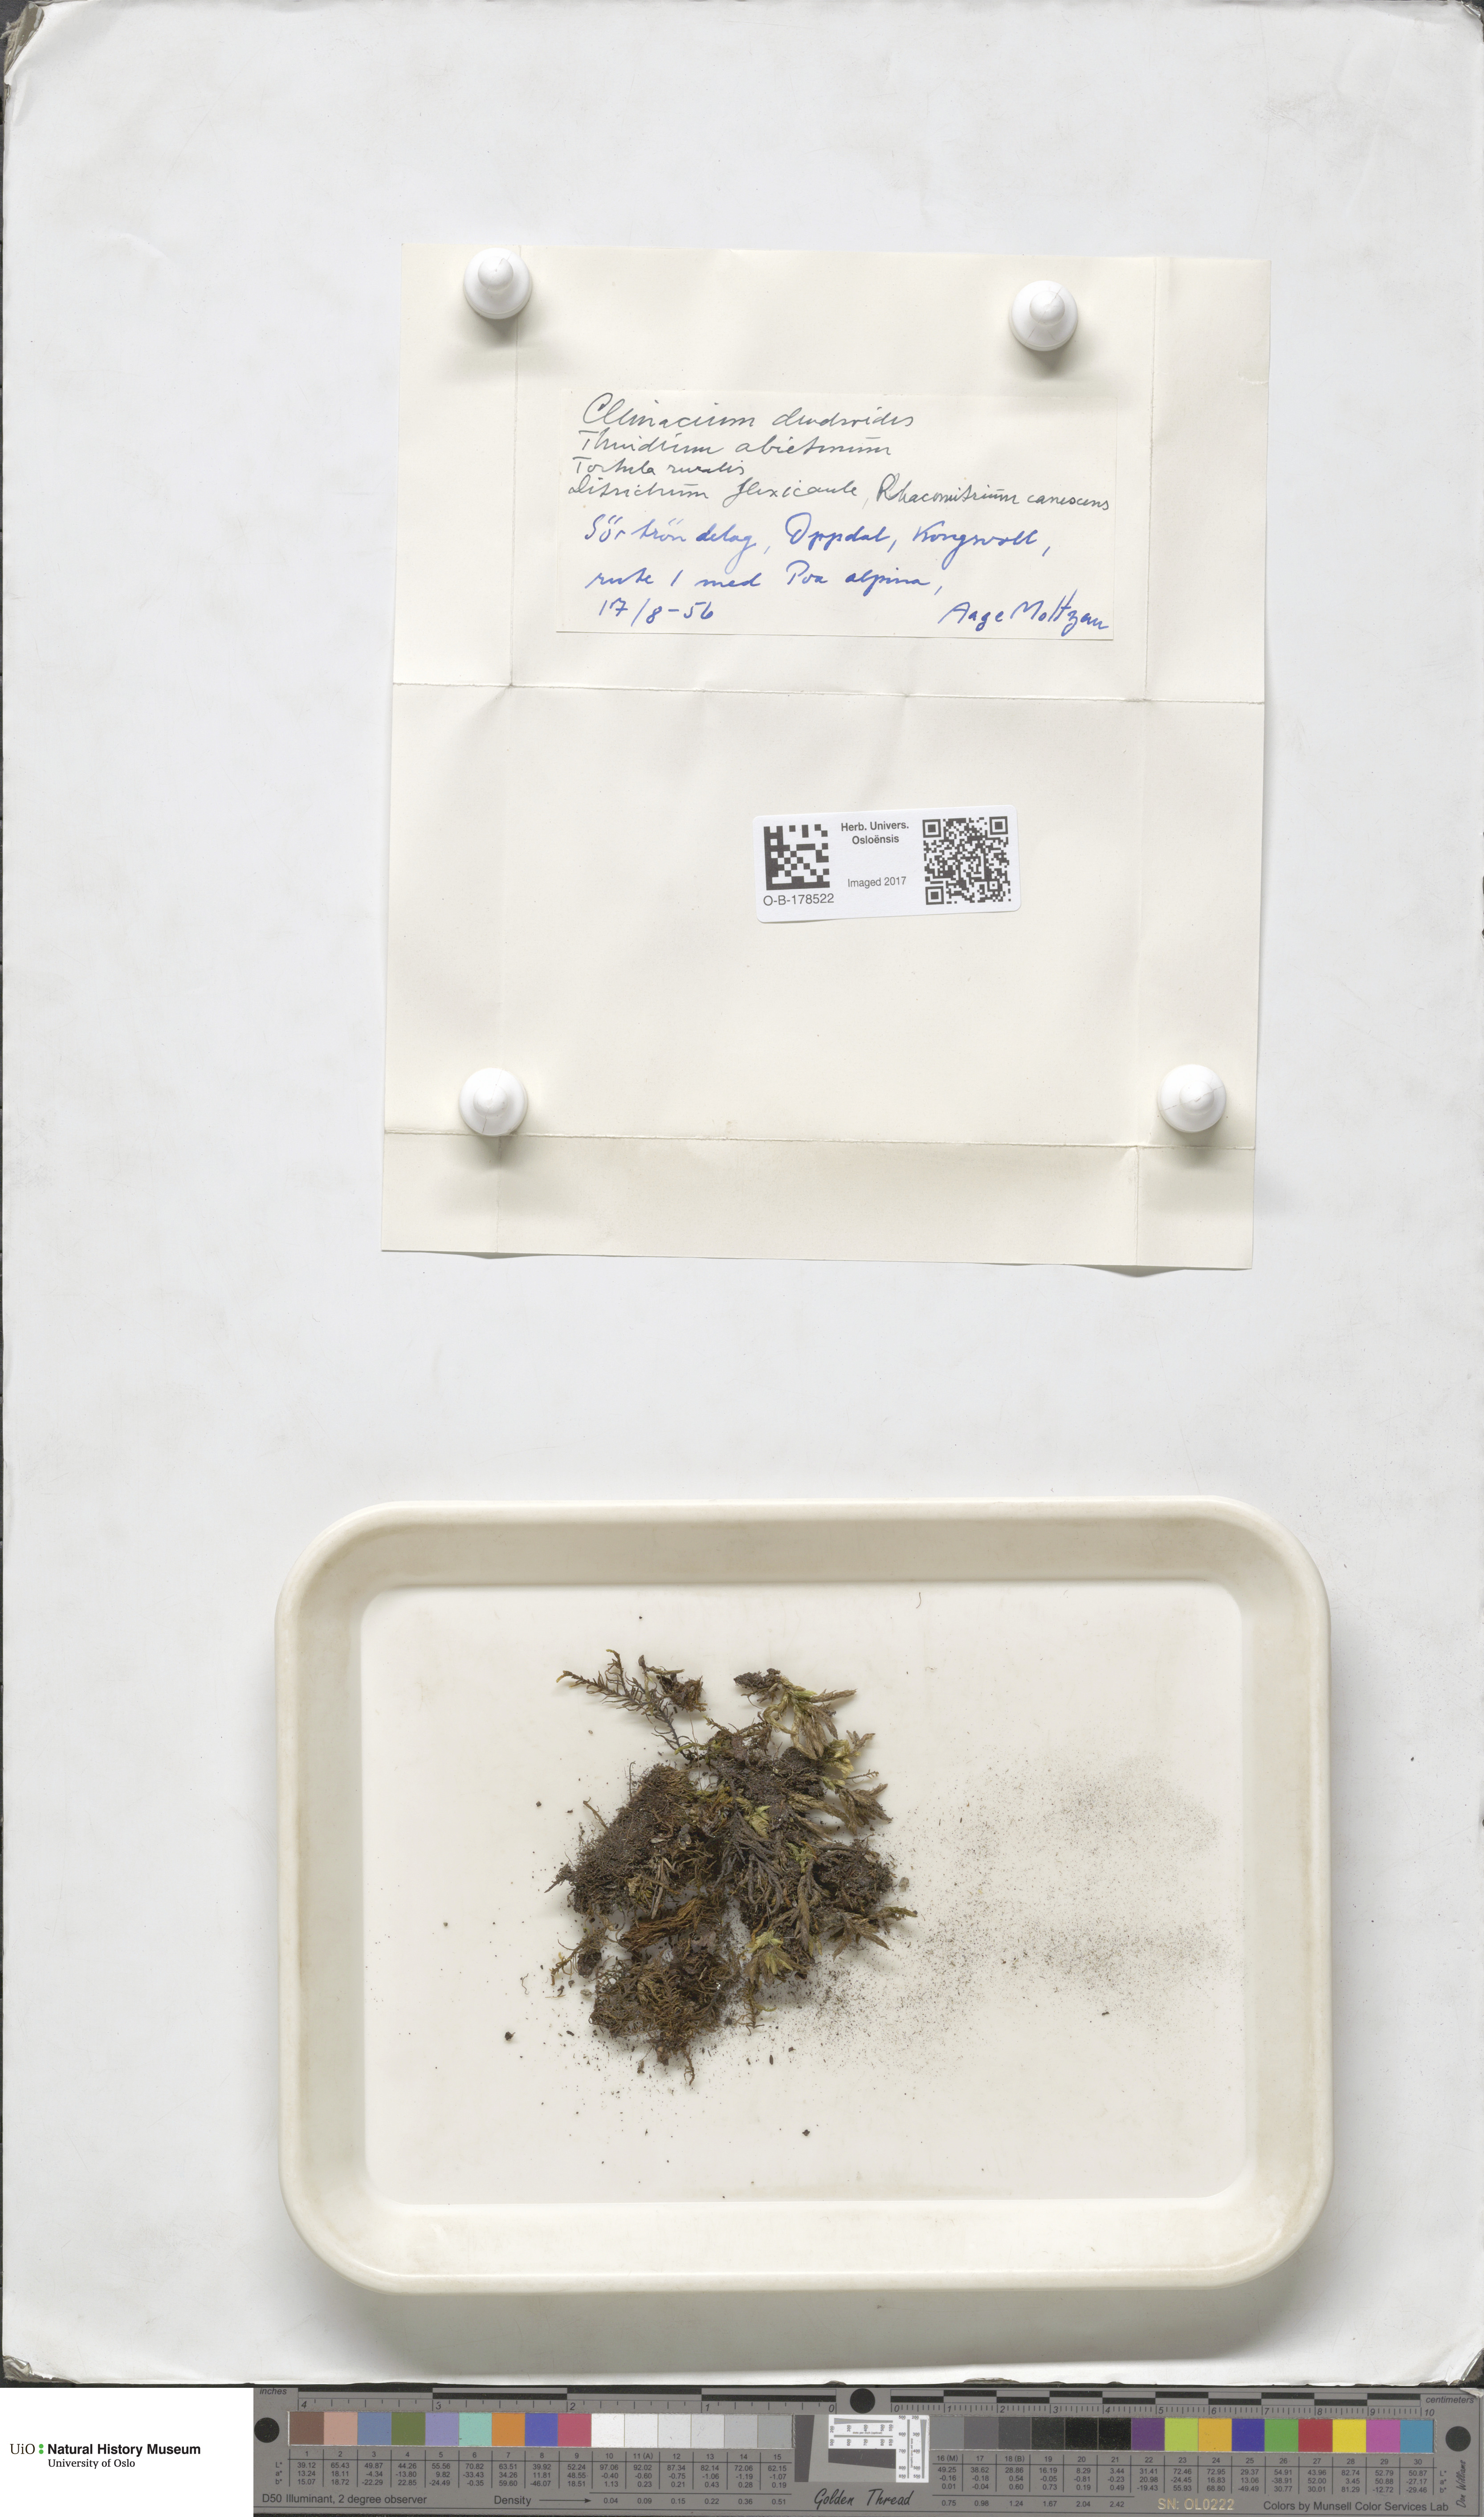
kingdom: Plantae
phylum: Bryophyta
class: Bryopsida
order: Hypnales
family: Climaciaceae
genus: Climacium
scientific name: Climacium dendroides
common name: Northern tree moss
